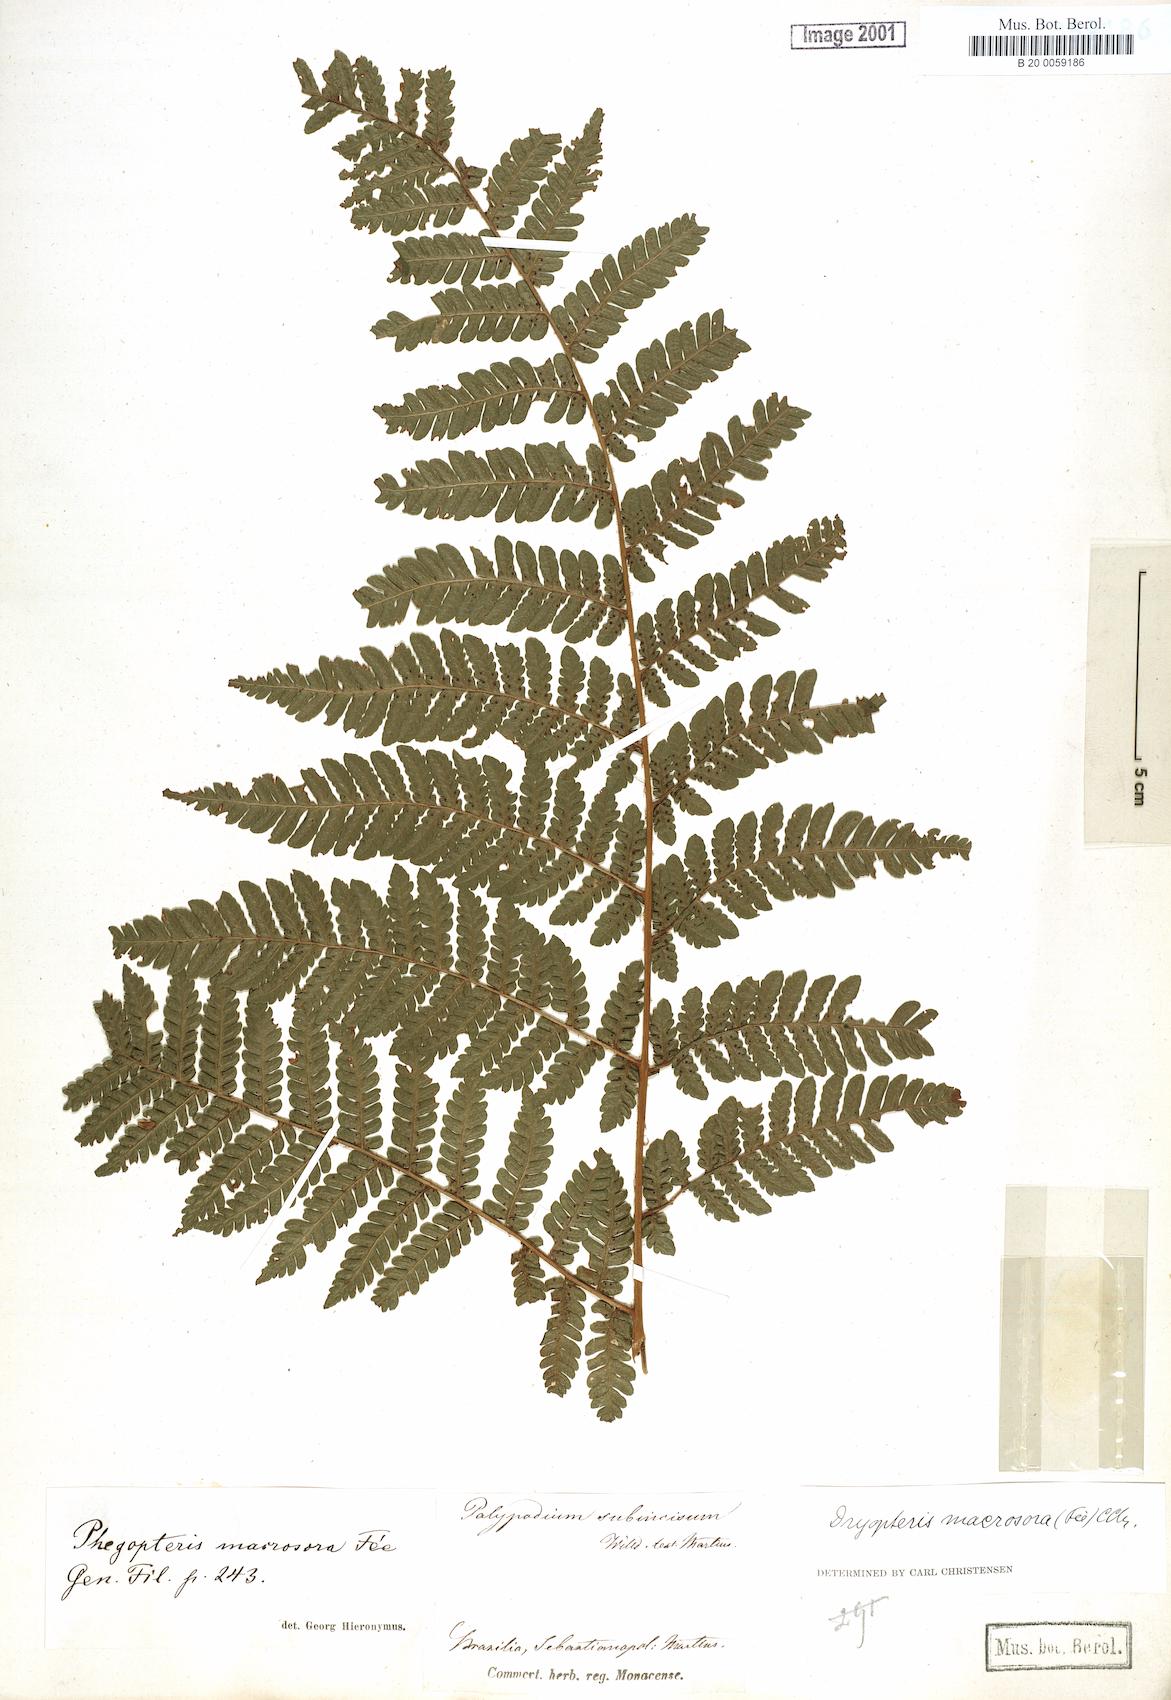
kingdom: Plantae
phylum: Tracheophyta
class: Polypodiopsida
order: Polypodiales
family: Dryopteridaceae
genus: Megalastrum
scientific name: Megalastrum inaequale
